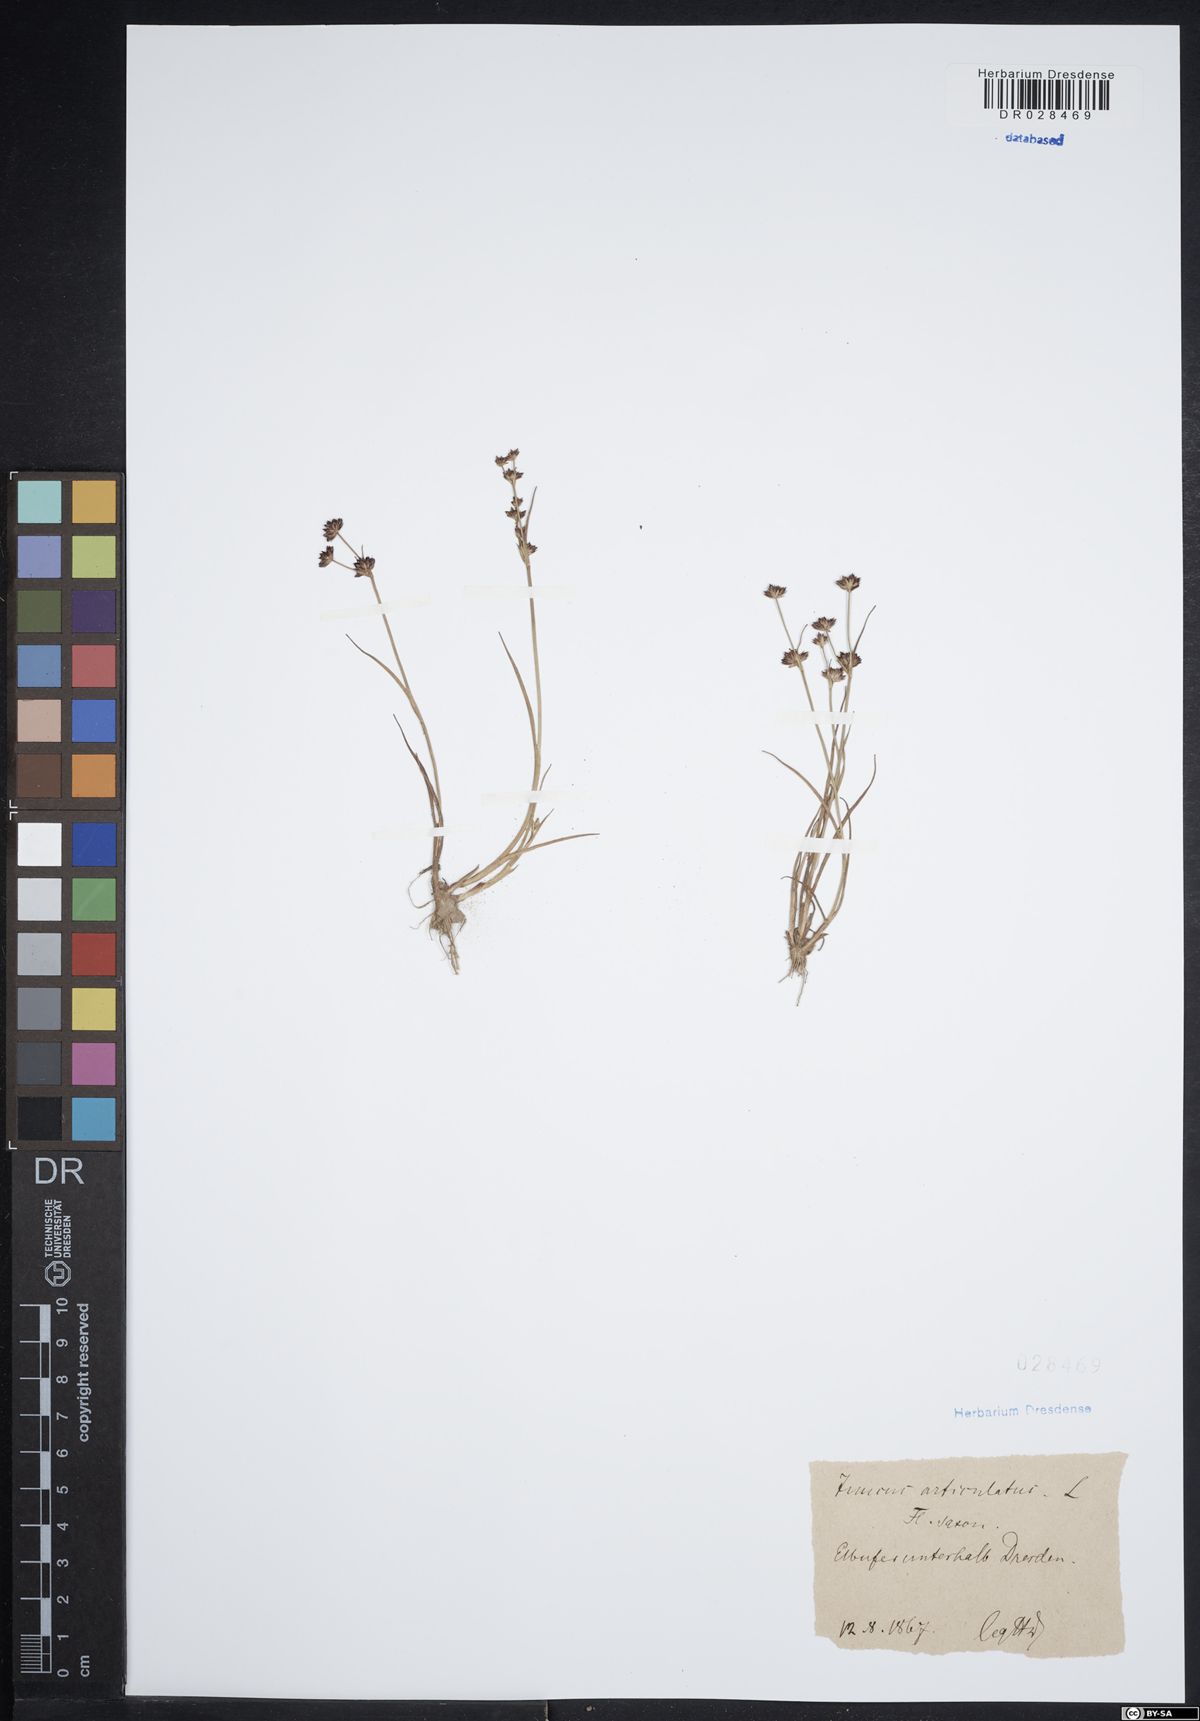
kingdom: Plantae
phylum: Tracheophyta
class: Liliopsida
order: Poales
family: Juncaceae
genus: Juncus
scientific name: Juncus articulatus
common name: Jointed rush
